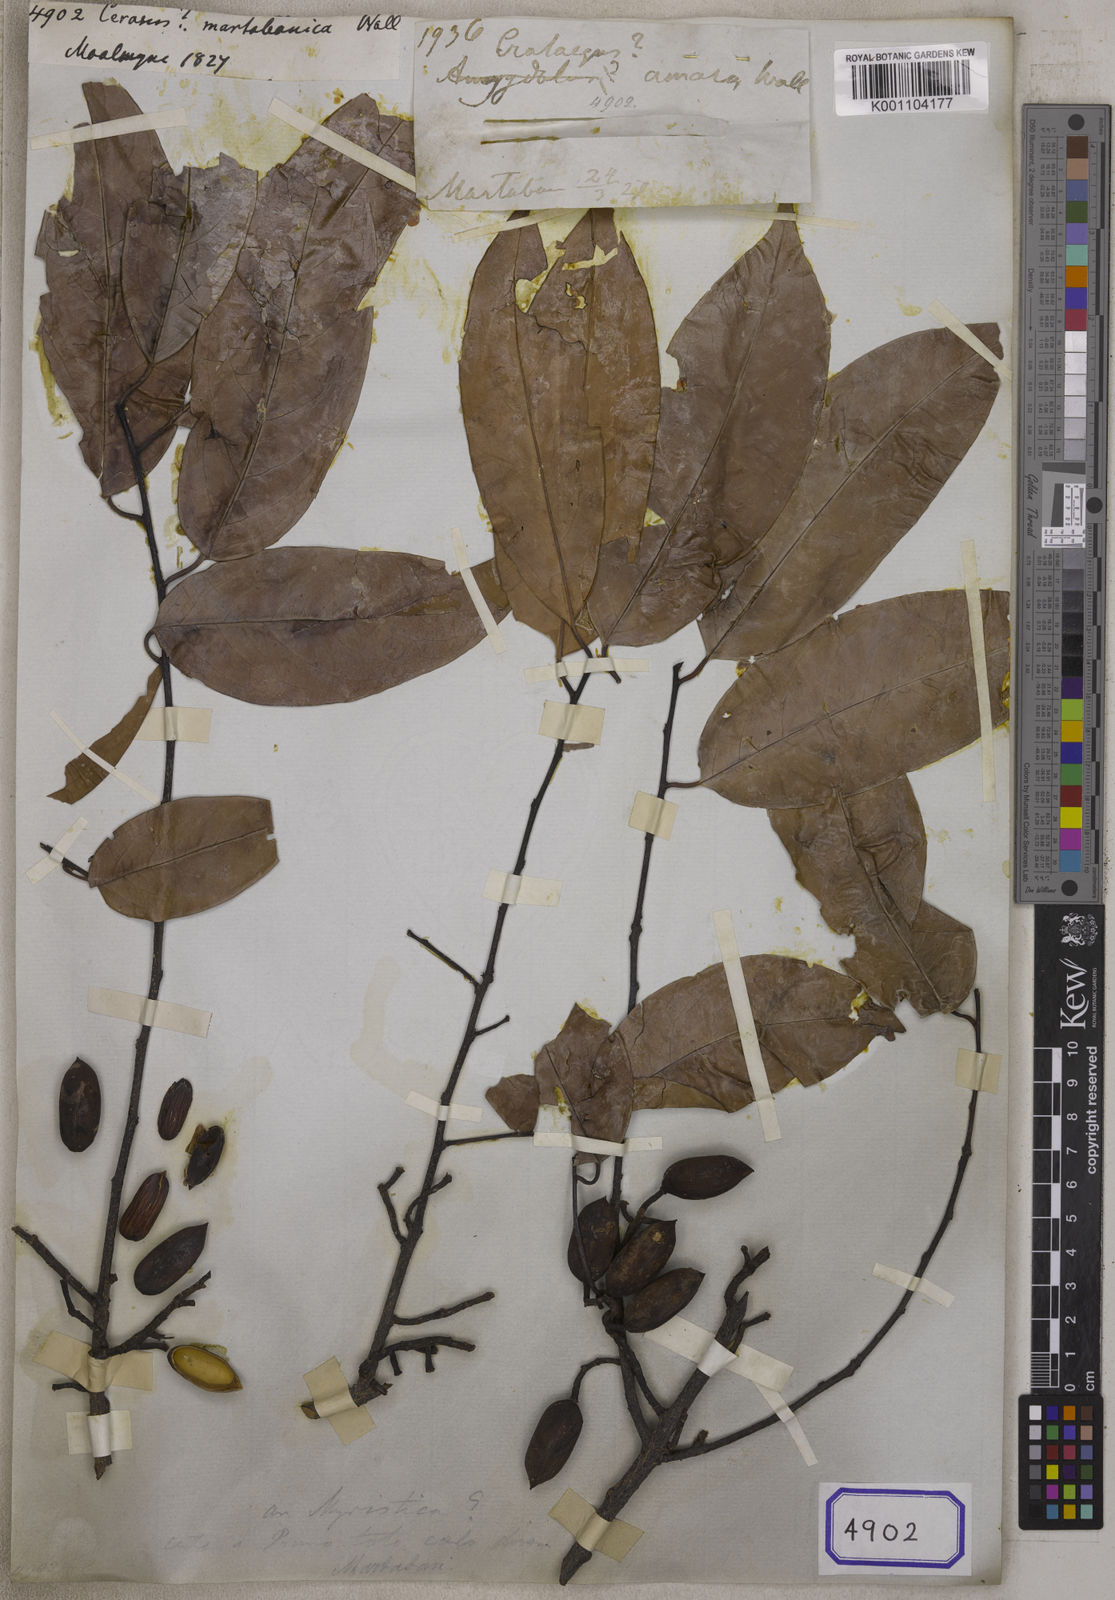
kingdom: Plantae
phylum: Tracheophyta
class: Magnoliopsida
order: Rosales
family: Rosaceae
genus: Prunus
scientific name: Prunus javanica
